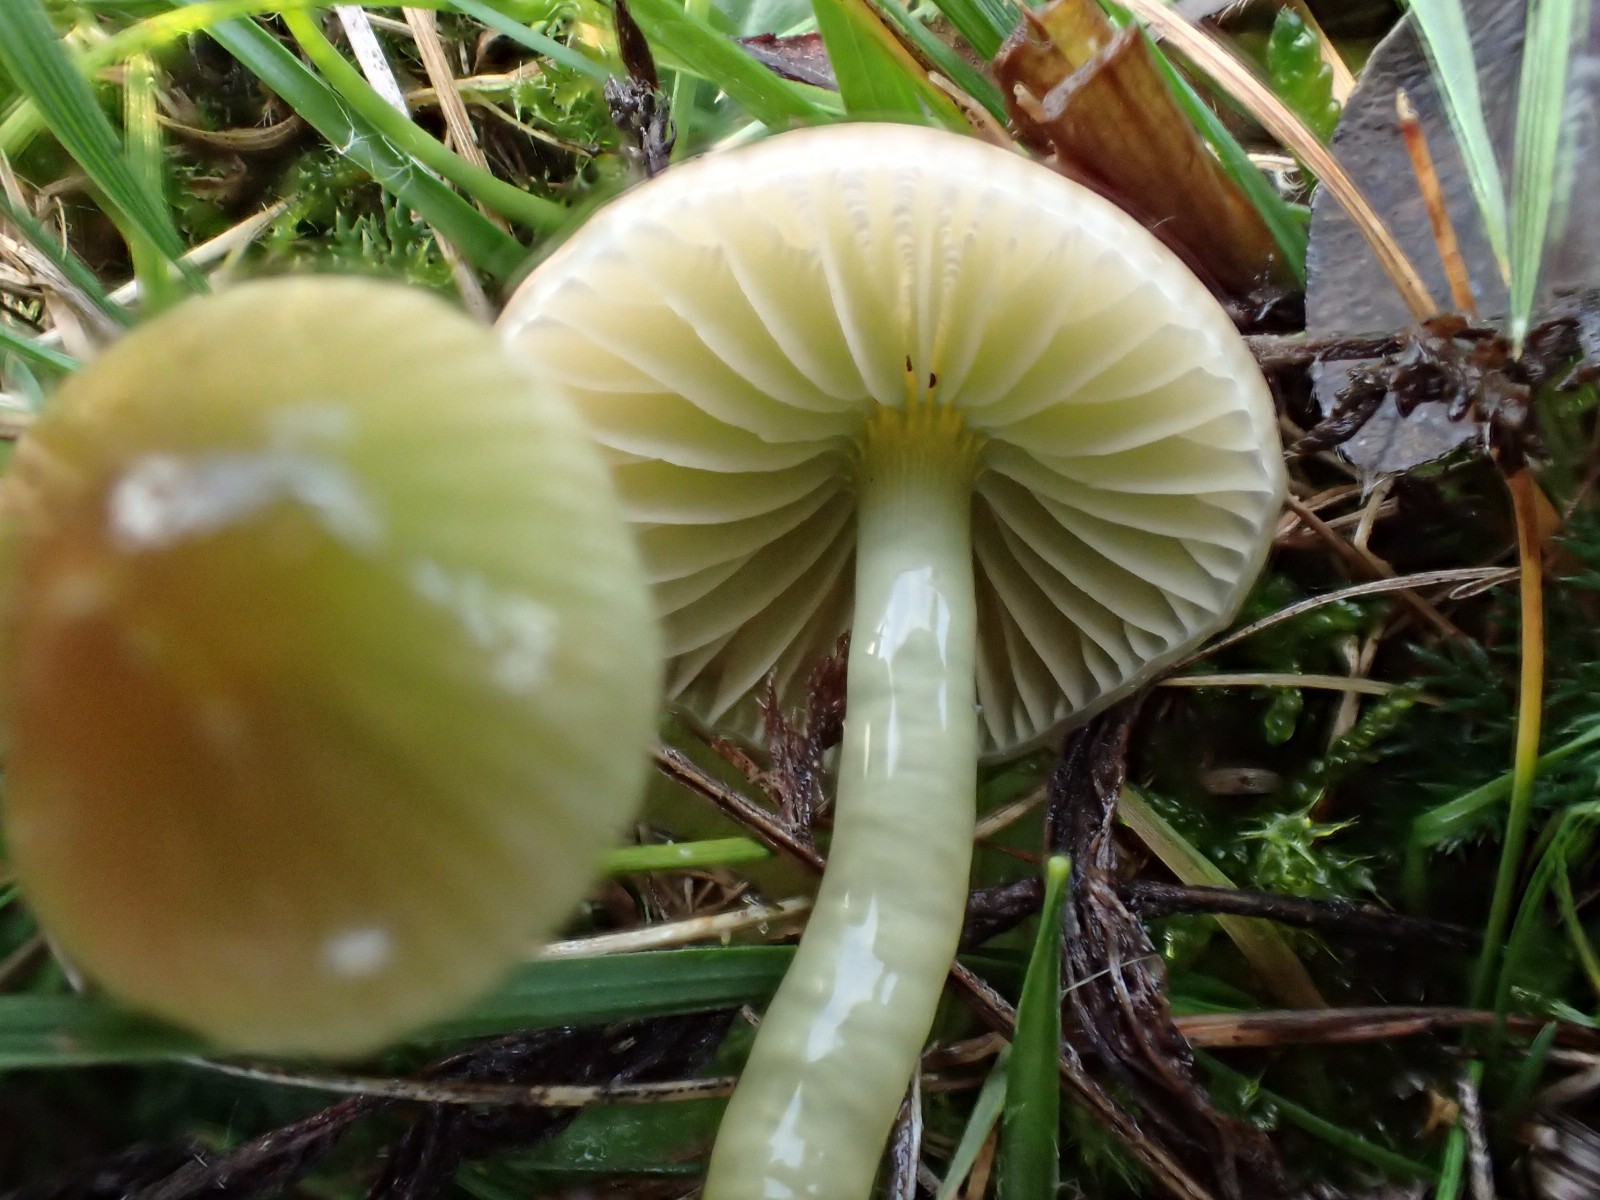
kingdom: Fungi
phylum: Basidiomycota
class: Agaricomycetes
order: Agaricales
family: Hygrophoraceae
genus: Gliophorus
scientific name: Gliophorus psittacinus
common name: papegøje-vokshat
